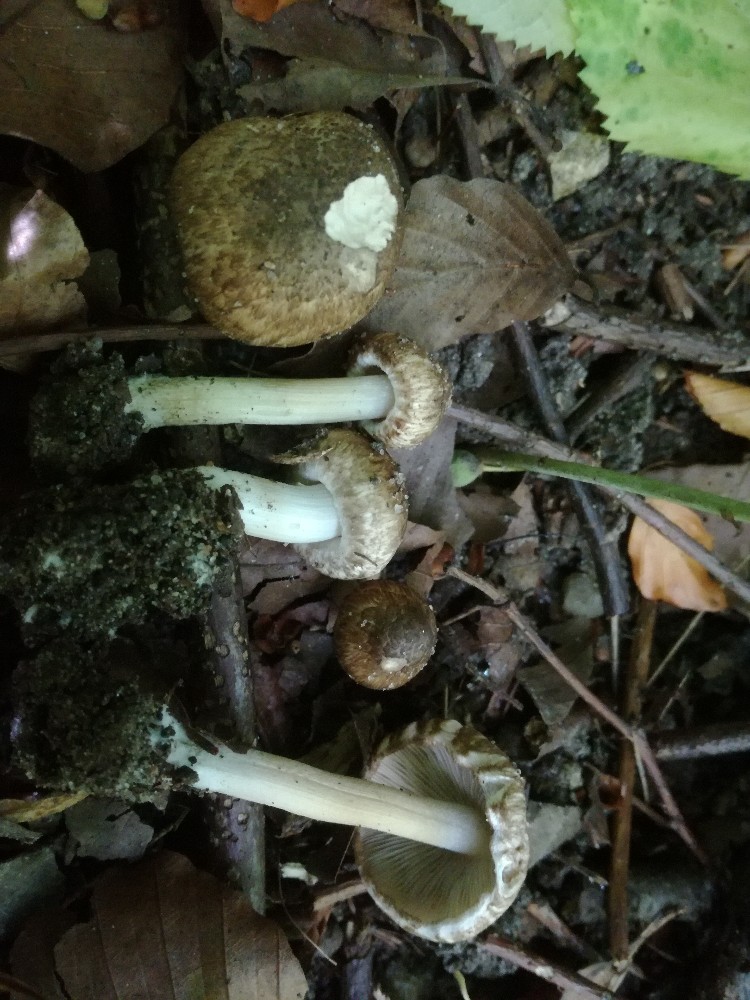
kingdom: Fungi
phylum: Basidiomycota
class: Agaricomycetes
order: Agaricales
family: Inocybaceae
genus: Inocybe
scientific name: Inocybe erinaceomorpha
